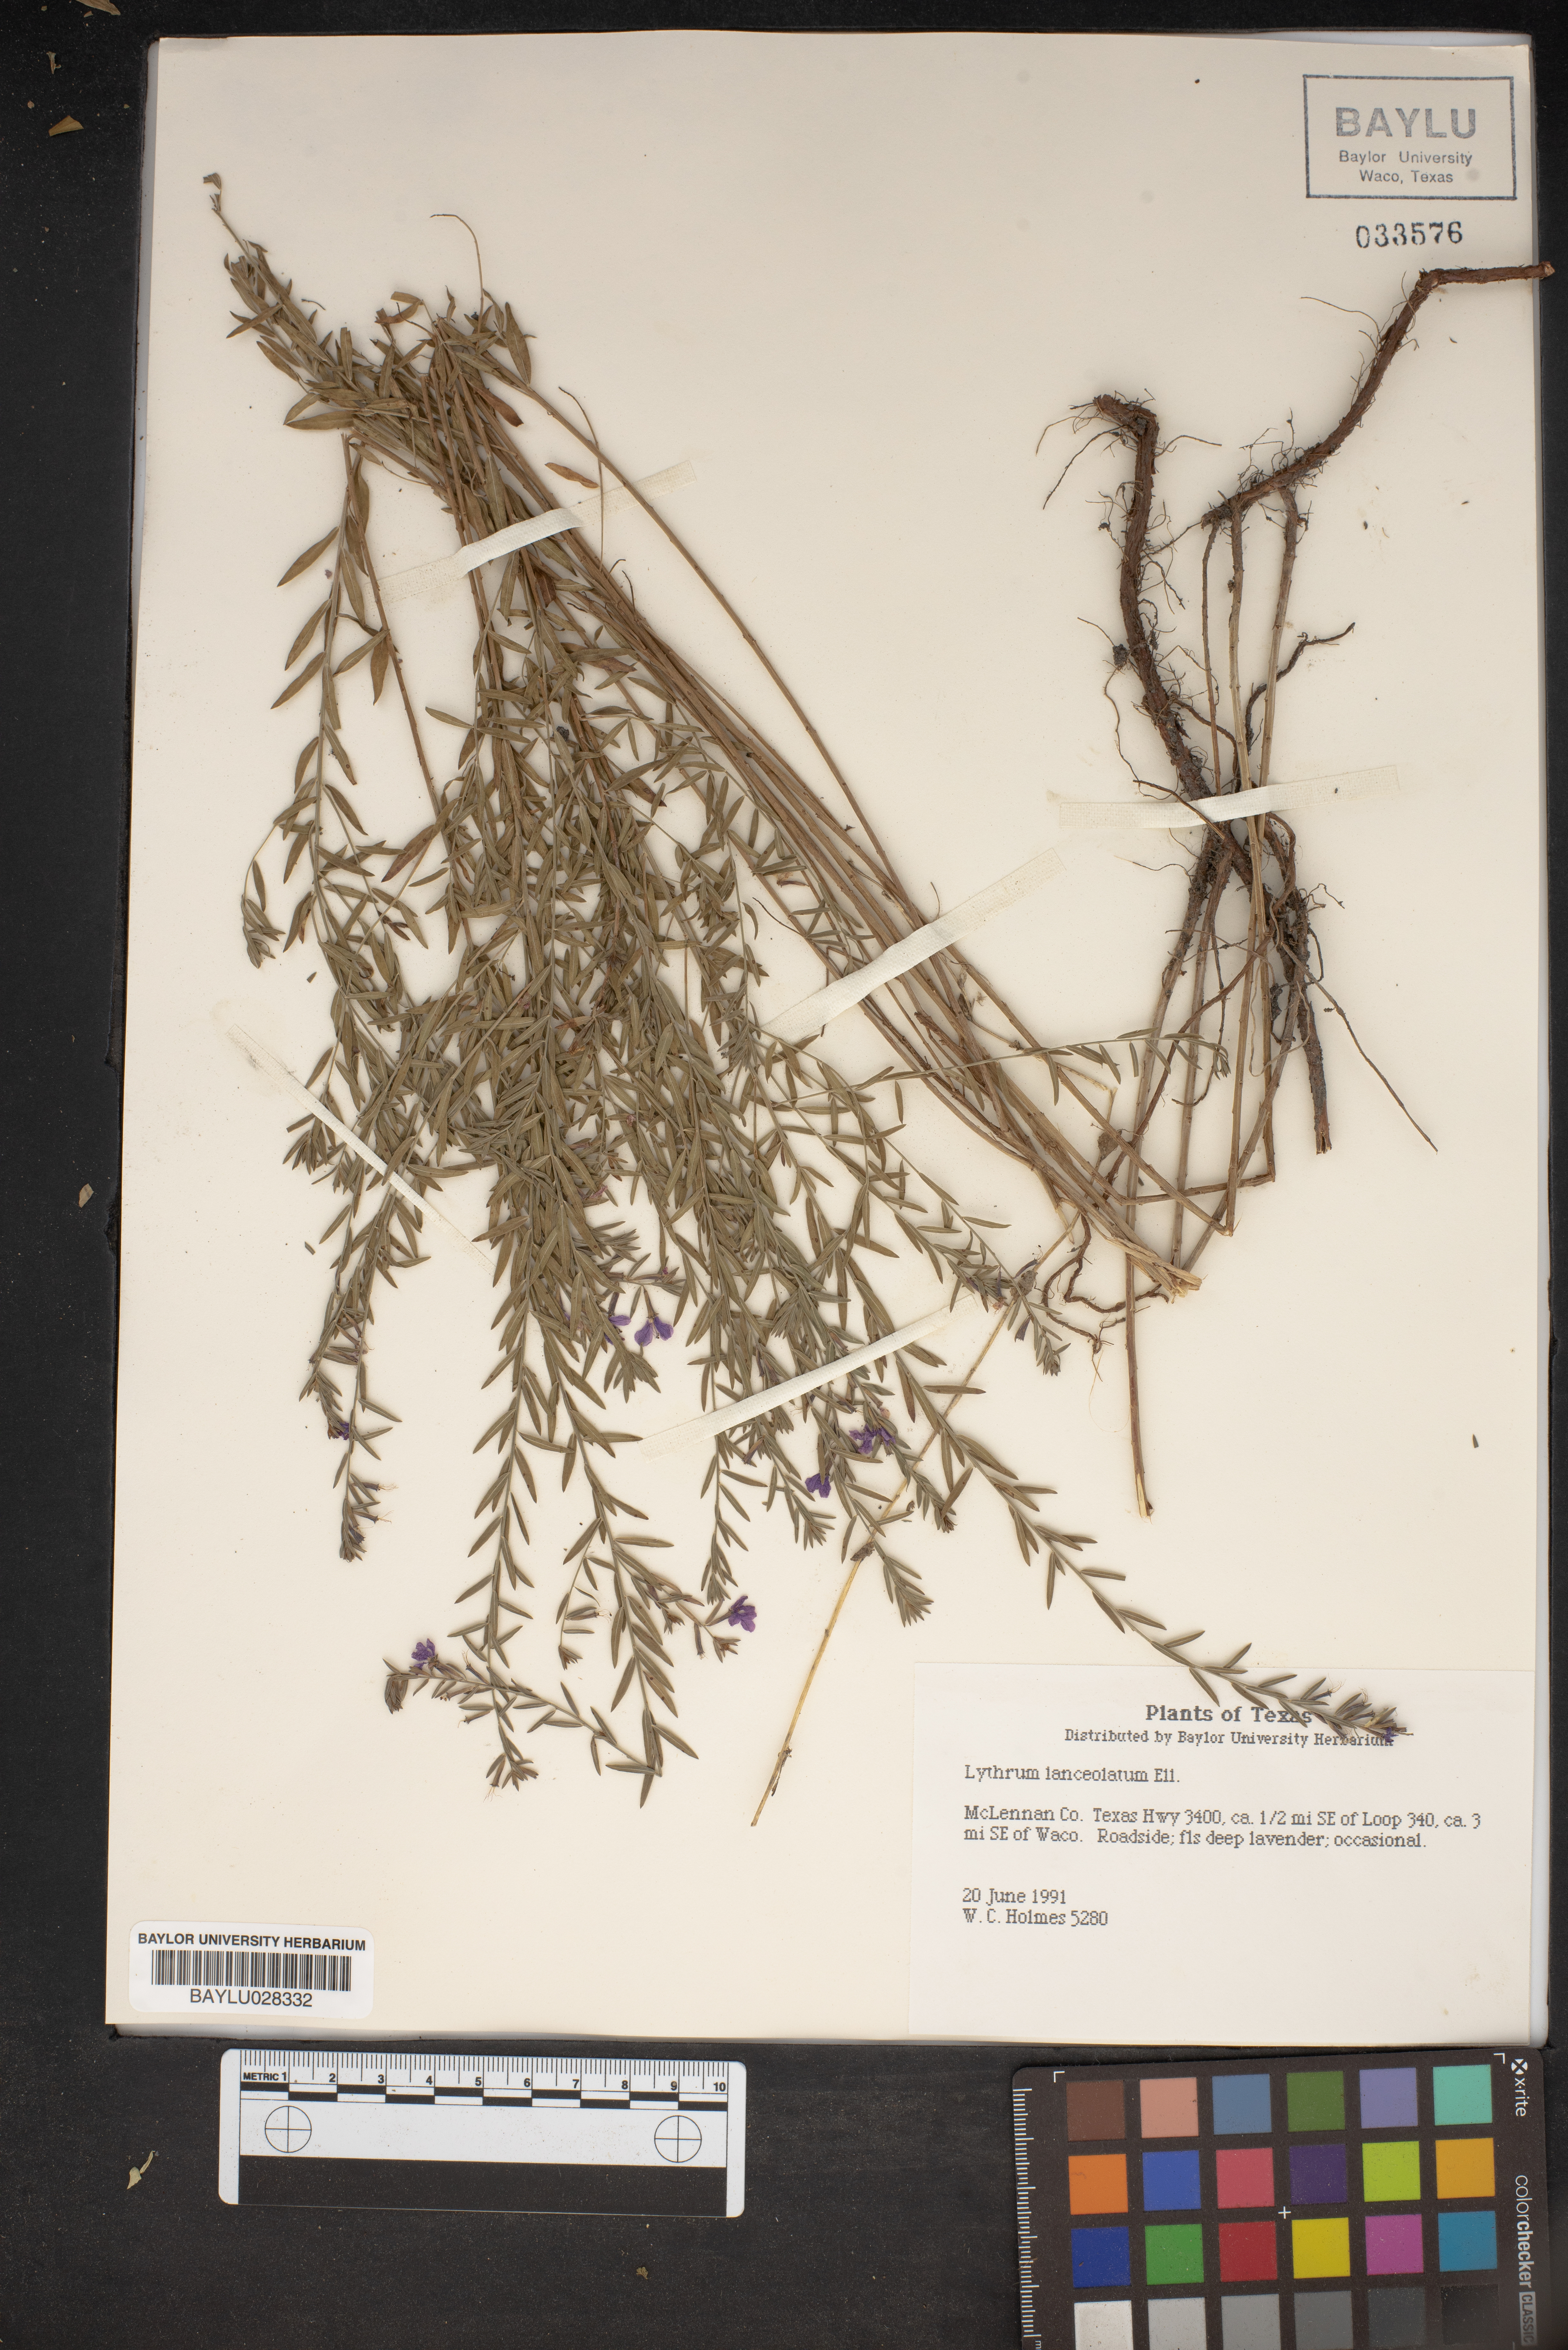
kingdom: Plantae
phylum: Tracheophyta
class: Magnoliopsida
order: Myrtales
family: Lythraceae
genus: Lythrum
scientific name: Lythrum alatum
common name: Winged loosestrife
